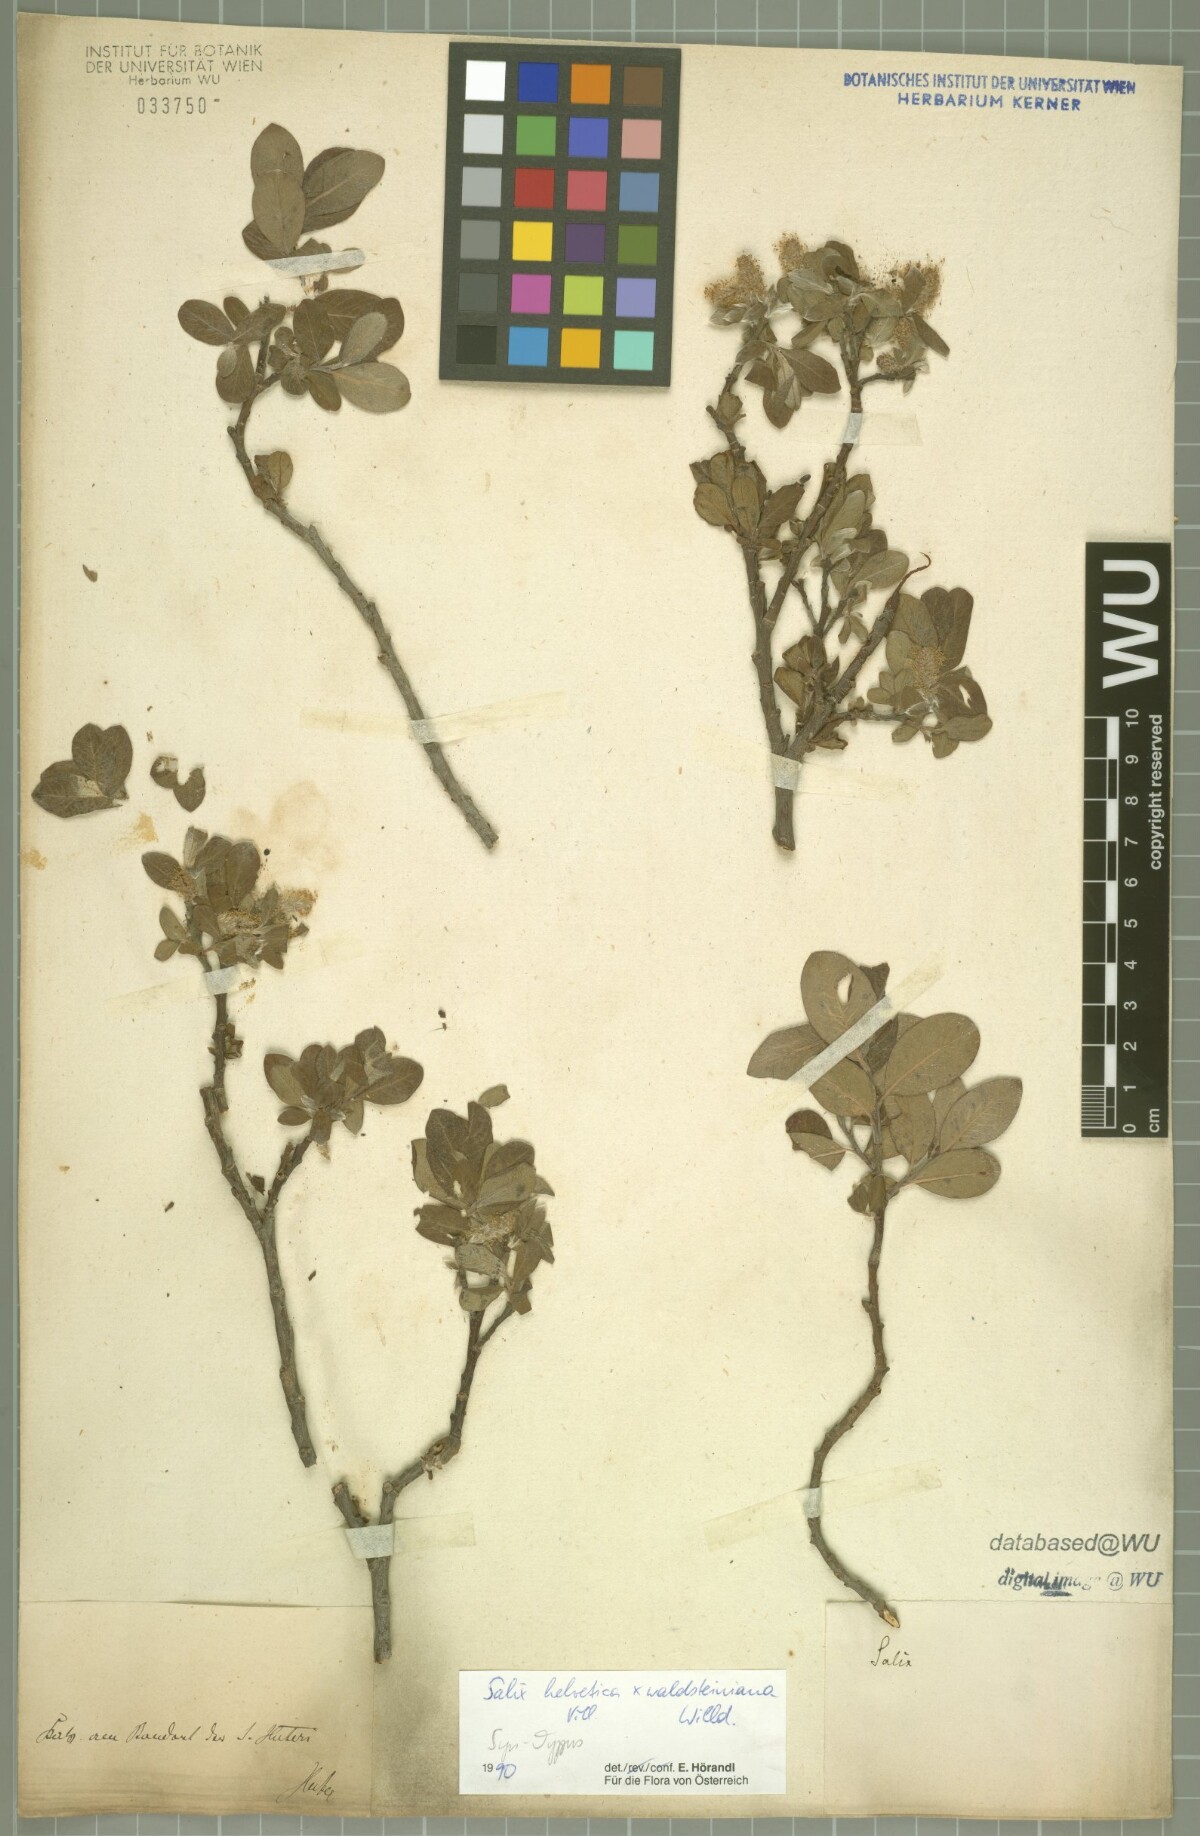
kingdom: Plantae
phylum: Tracheophyta
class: Magnoliopsida
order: Malpighiales
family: Salicaceae
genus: Salix
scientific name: Salix lapponum
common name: Downy willow
